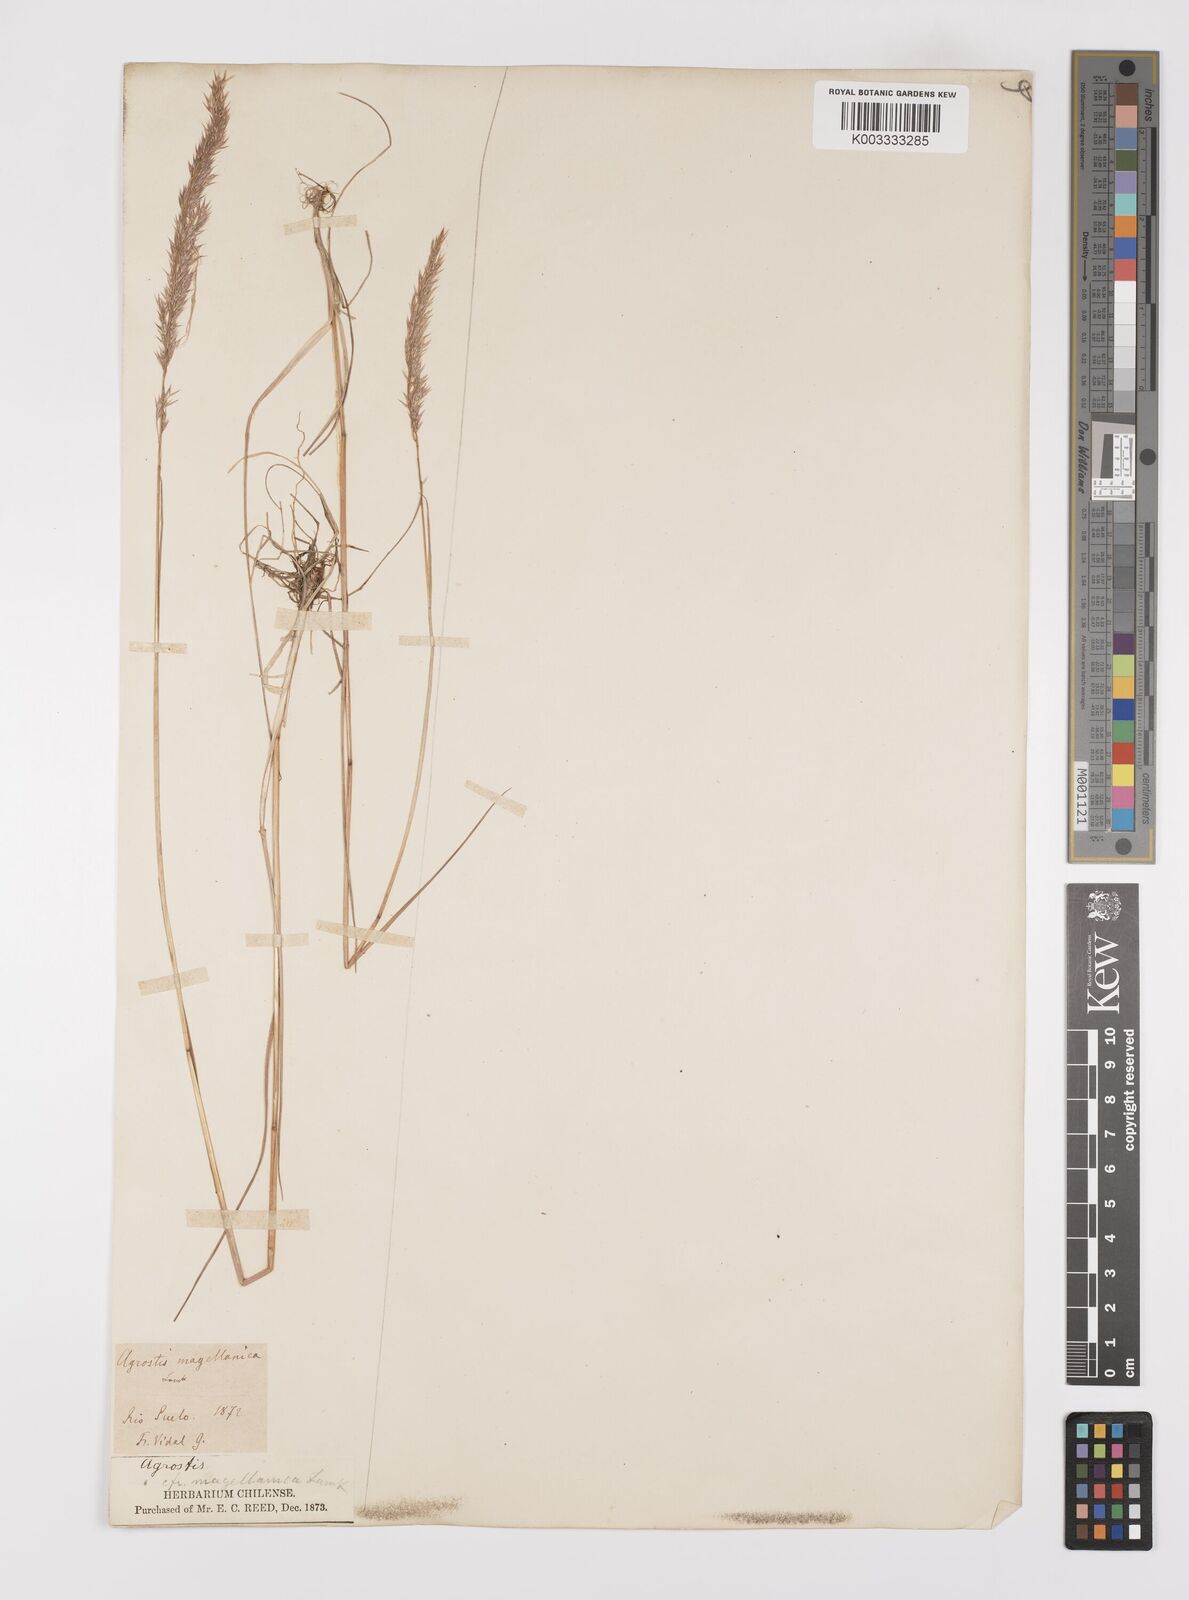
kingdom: Plantae
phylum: Tracheophyta
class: Liliopsida
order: Poales
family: Poaceae
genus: Polypogon
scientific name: Polypogon magellanicus
